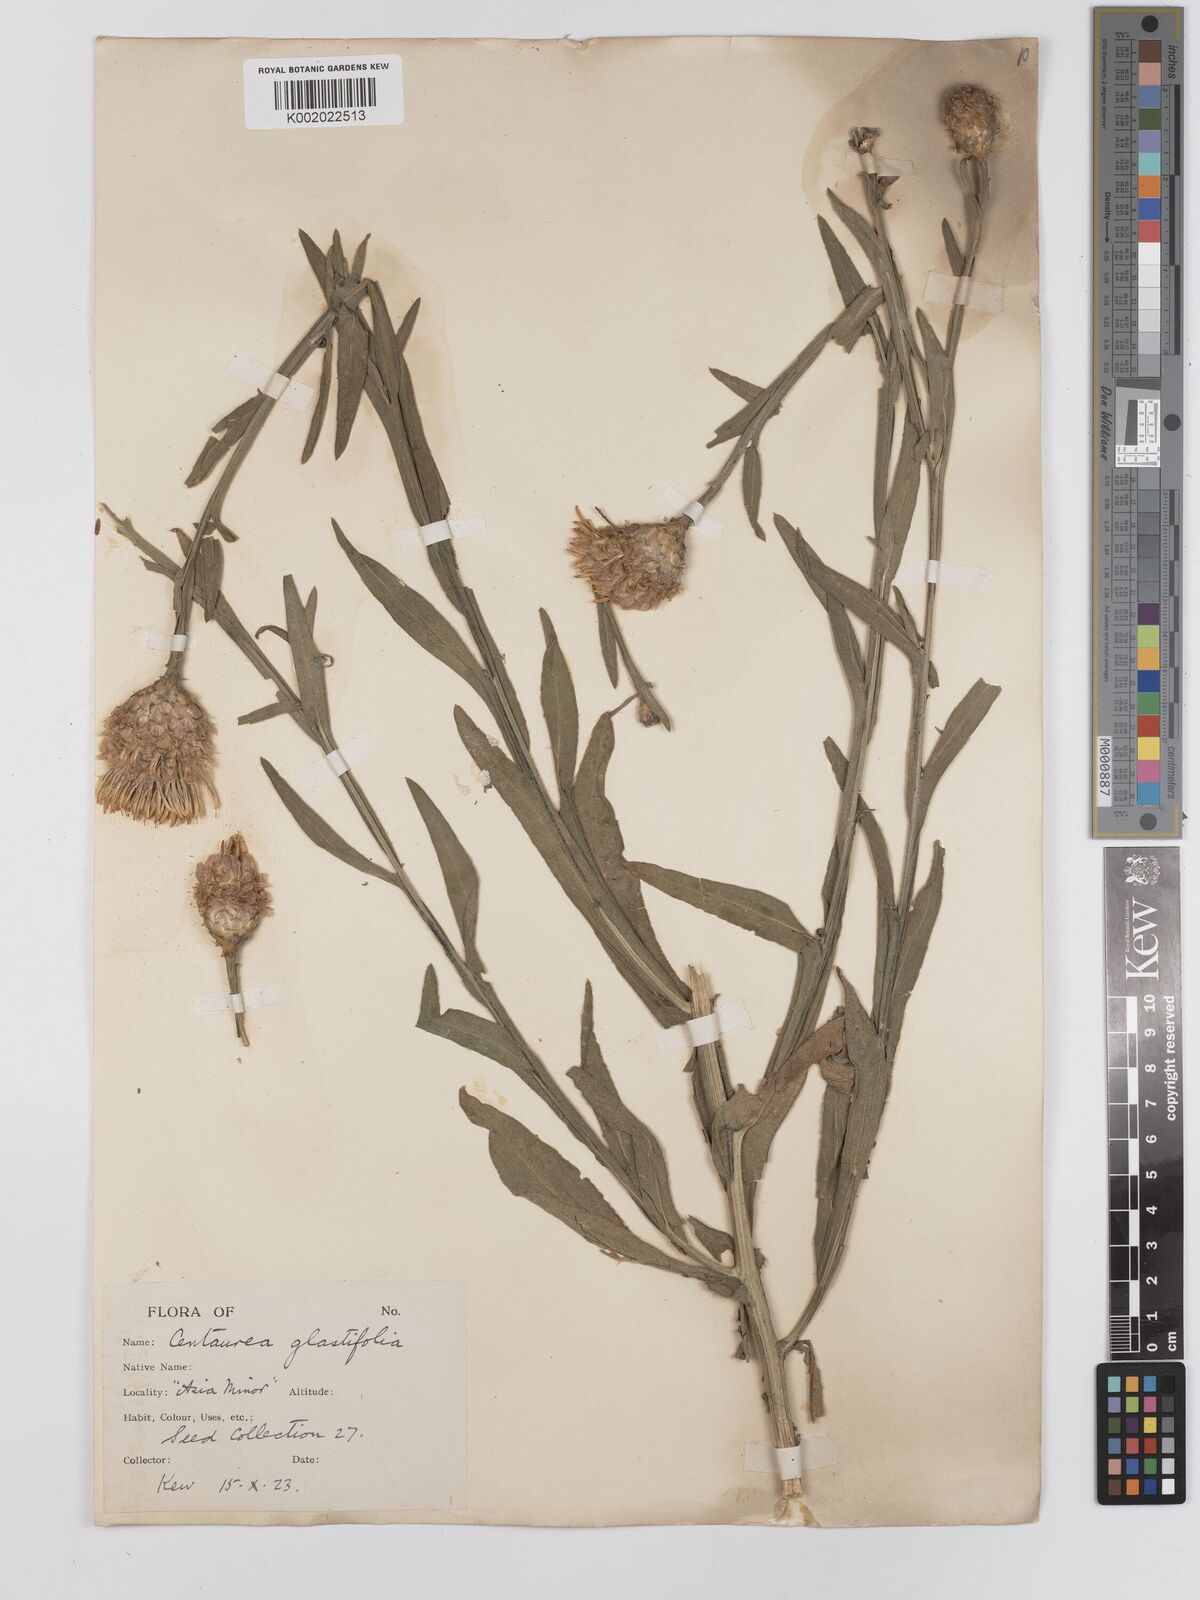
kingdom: Plantae
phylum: Tracheophyta
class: Magnoliopsida
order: Asterales
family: Asteraceae
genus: Centaurea
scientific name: Centaurea glastifolia
